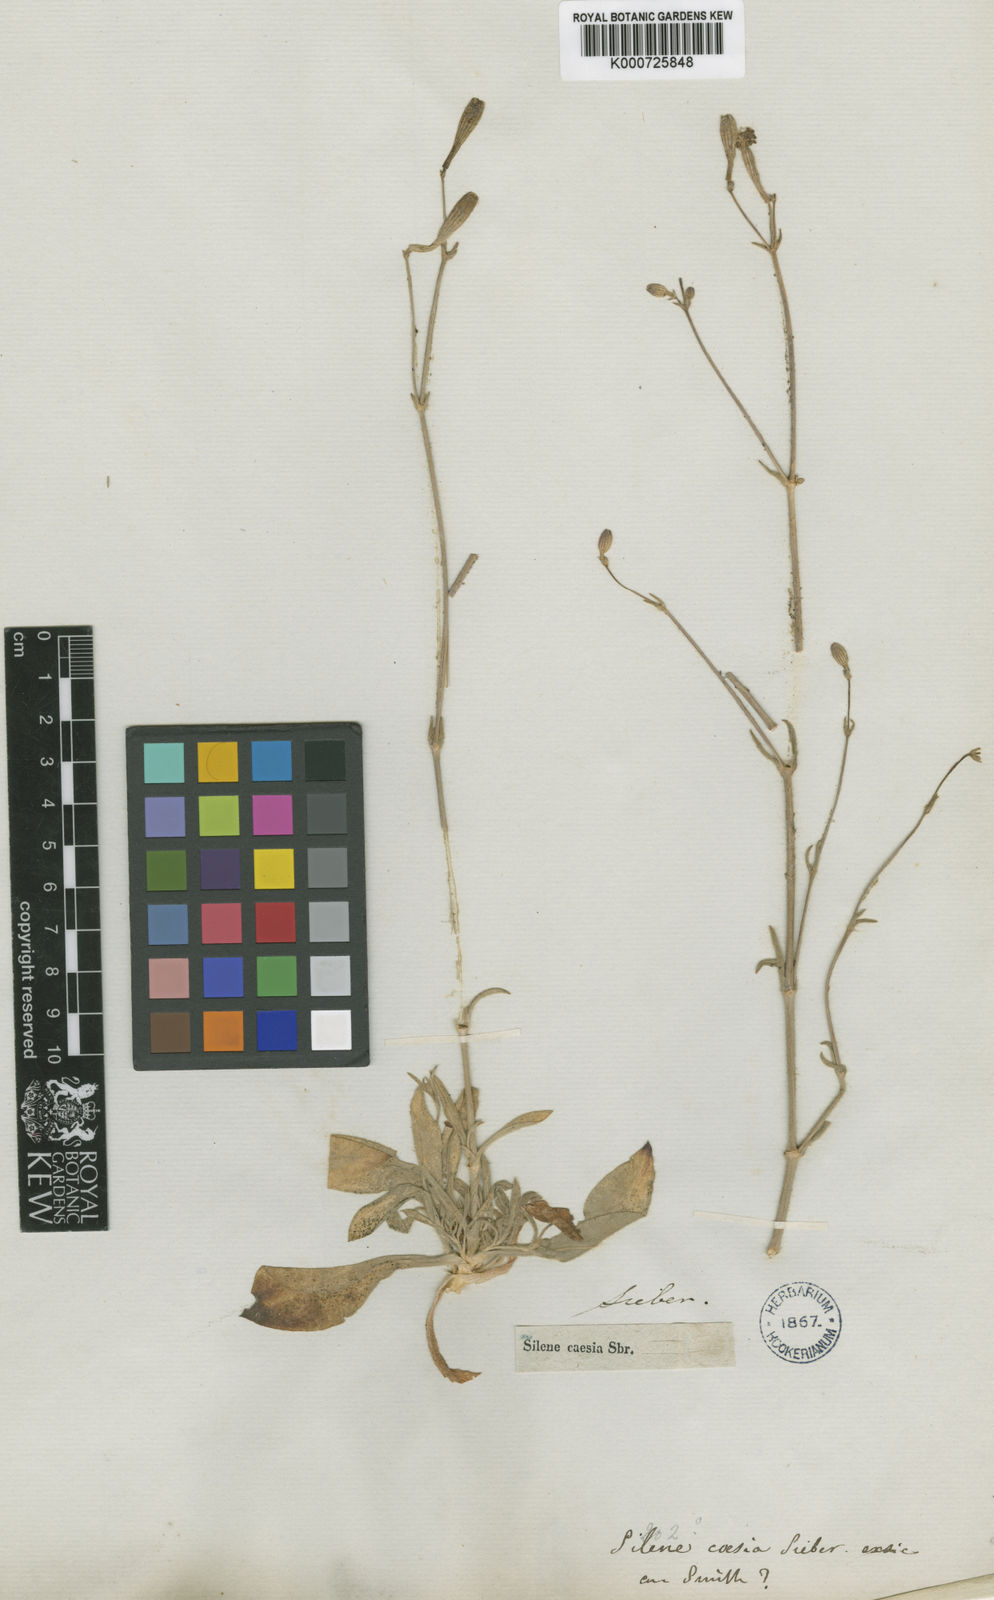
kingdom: Plantae
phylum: Tracheophyta
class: Magnoliopsida
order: Caryophyllales
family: Caryophyllaceae
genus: Silene
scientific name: Silene italica
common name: Italian catchfly
